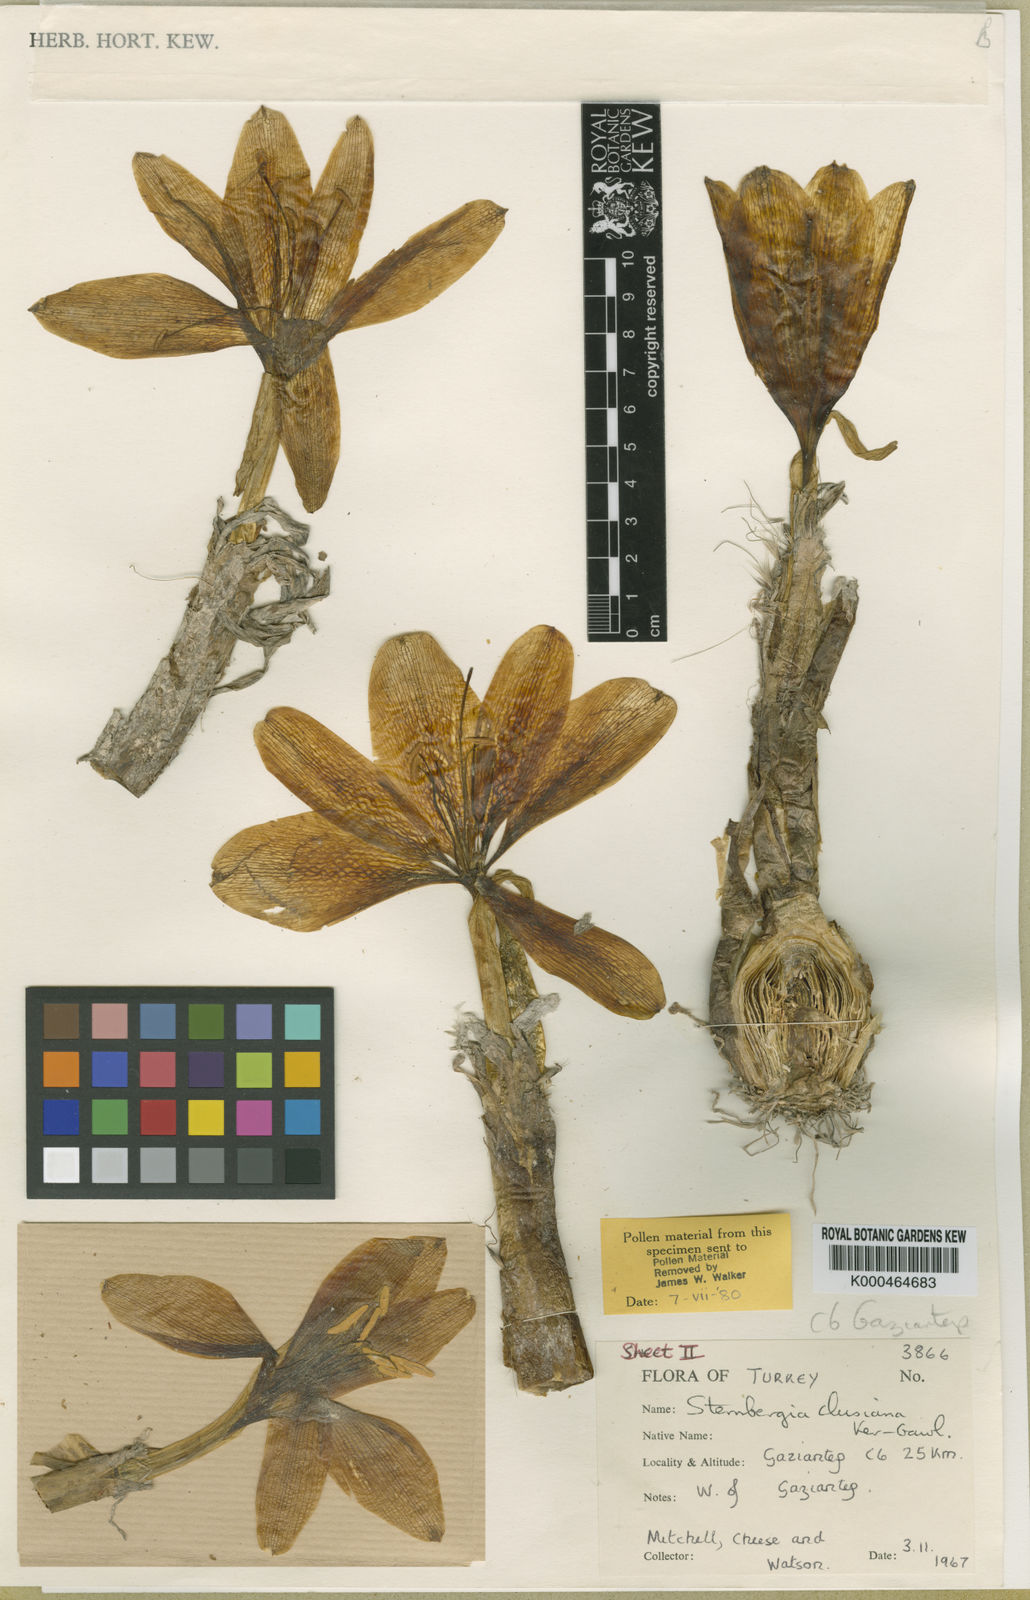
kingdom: Plantae
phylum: Tracheophyta
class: Liliopsida
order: Asparagales
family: Amaryllidaceae
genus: Sternbergia
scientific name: Sternbergia
